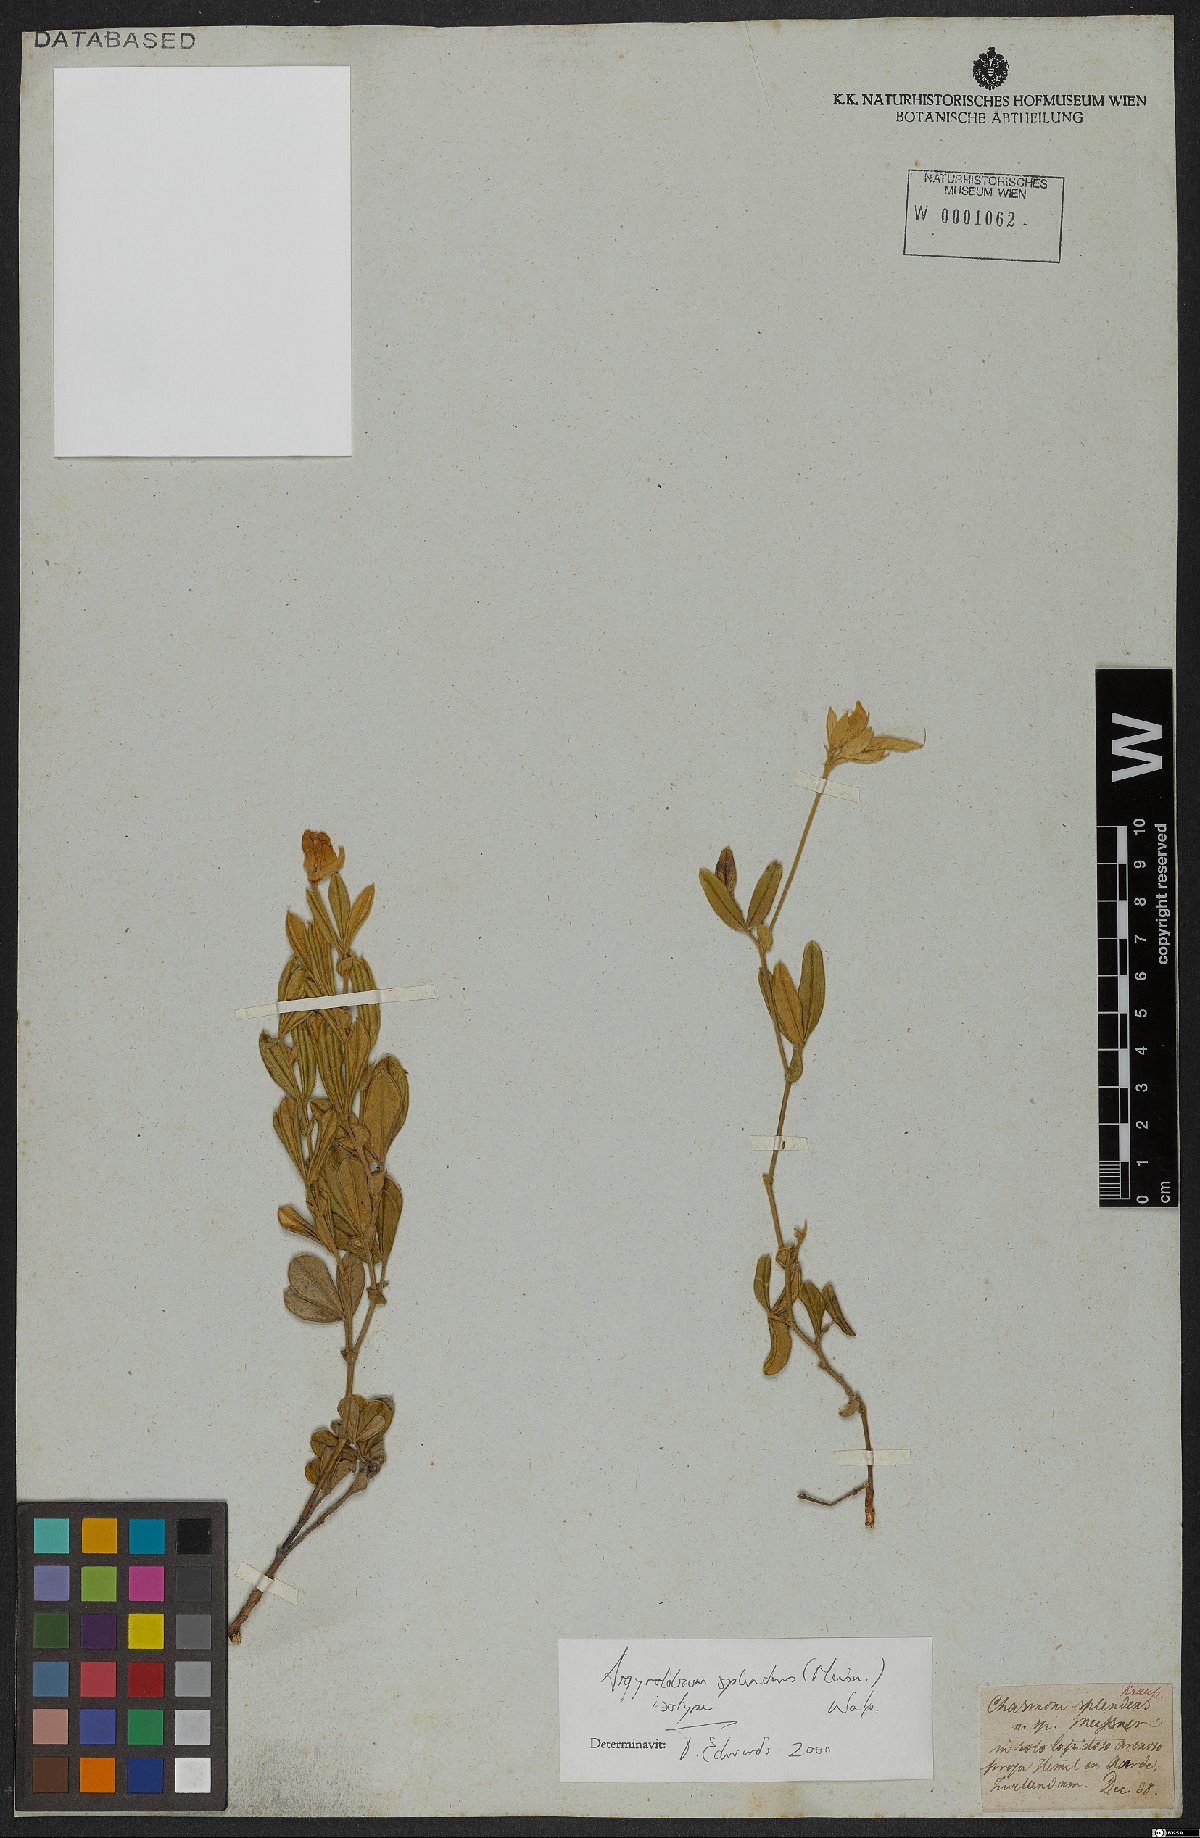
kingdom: Plantae
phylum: Tracheophyta
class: Magnoliopsida
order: Fabales
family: Fabaceae
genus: Argyrolobium
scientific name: Argyrolobium splendens
